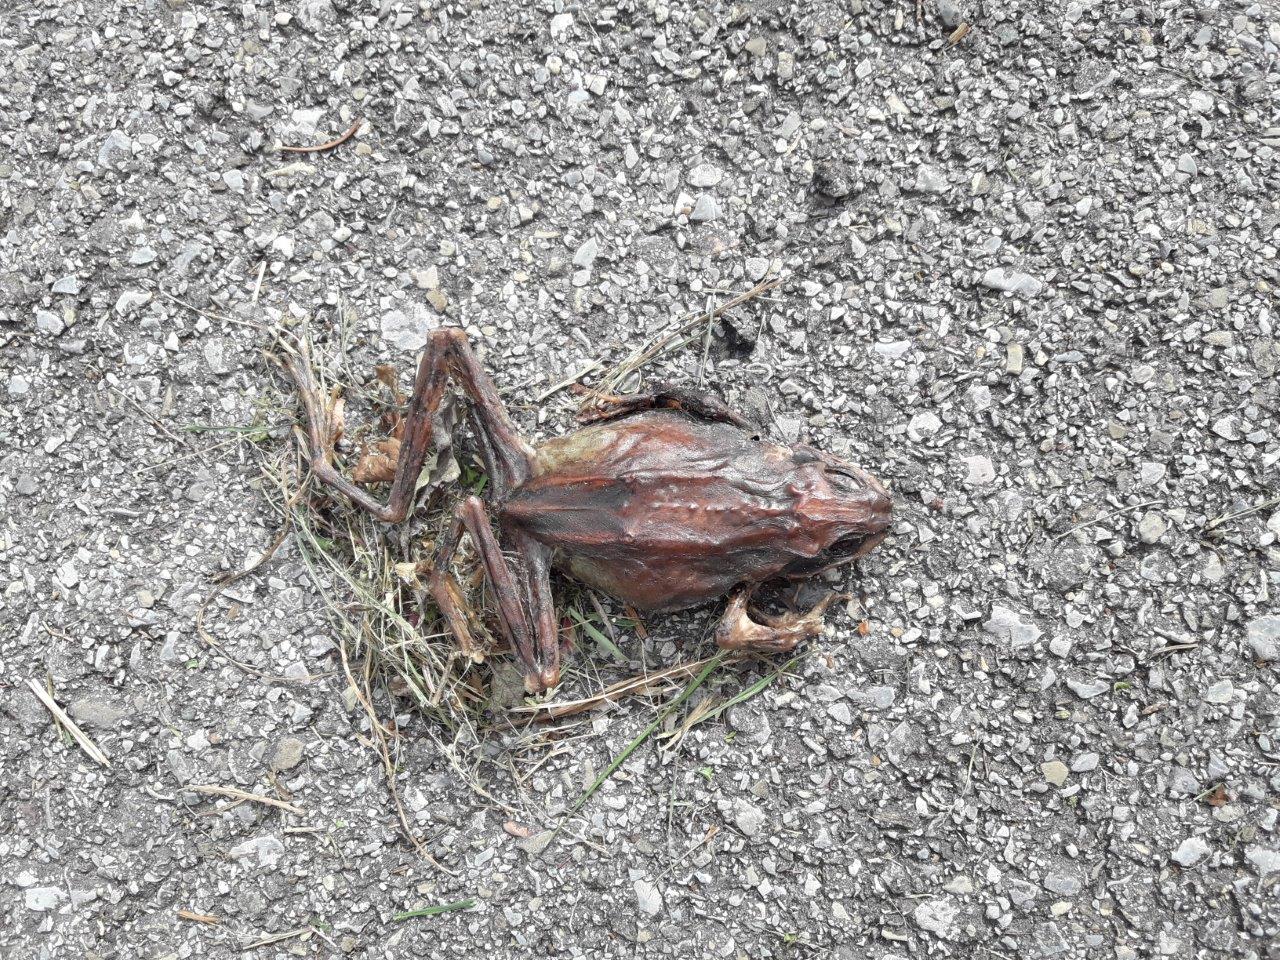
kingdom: Animalia
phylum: Chordata
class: Amphibia
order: Anura
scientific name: Anura
